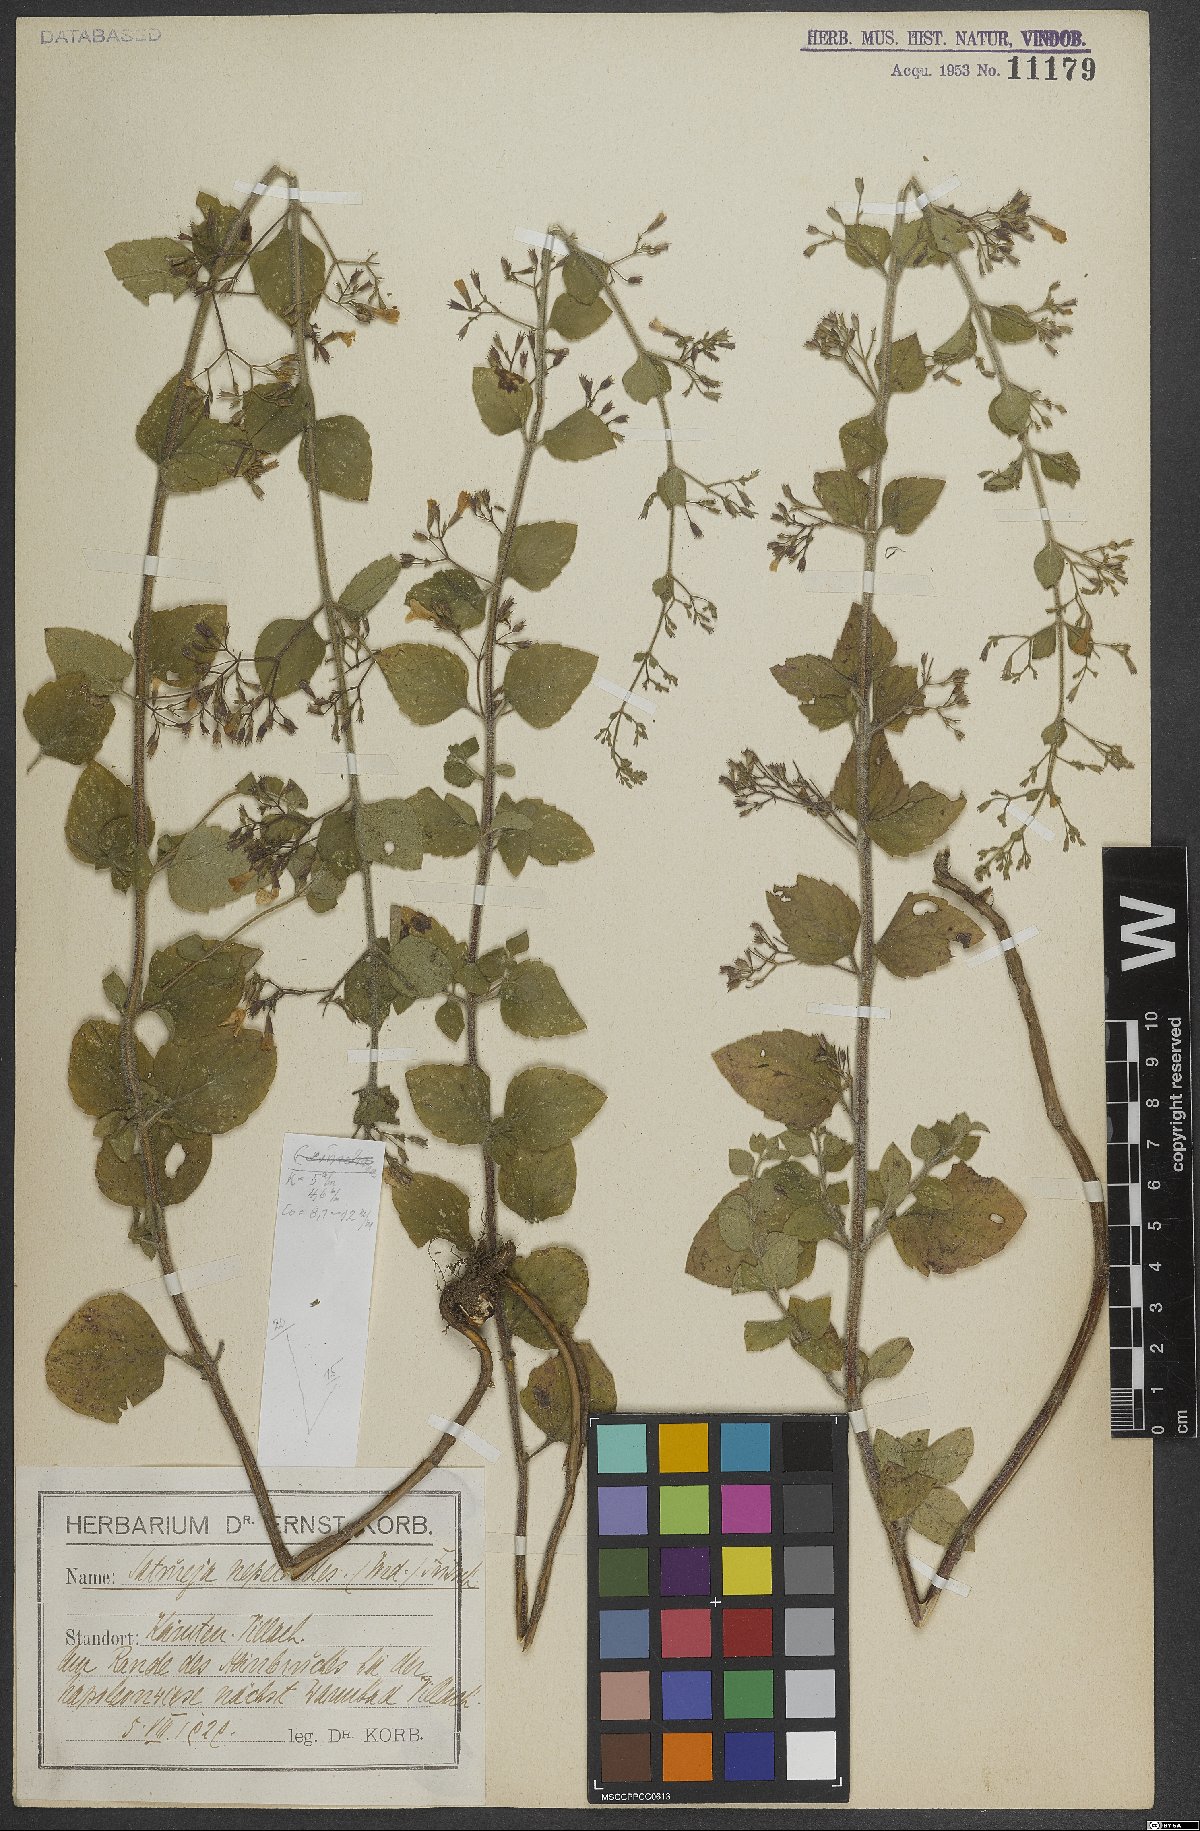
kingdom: Plantae
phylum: Tracheophyta
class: Magnoliopsida
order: Lamiales
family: Lamiaceae
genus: Clinopodium
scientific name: Clinopodium nepeta
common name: Lesser calamint
